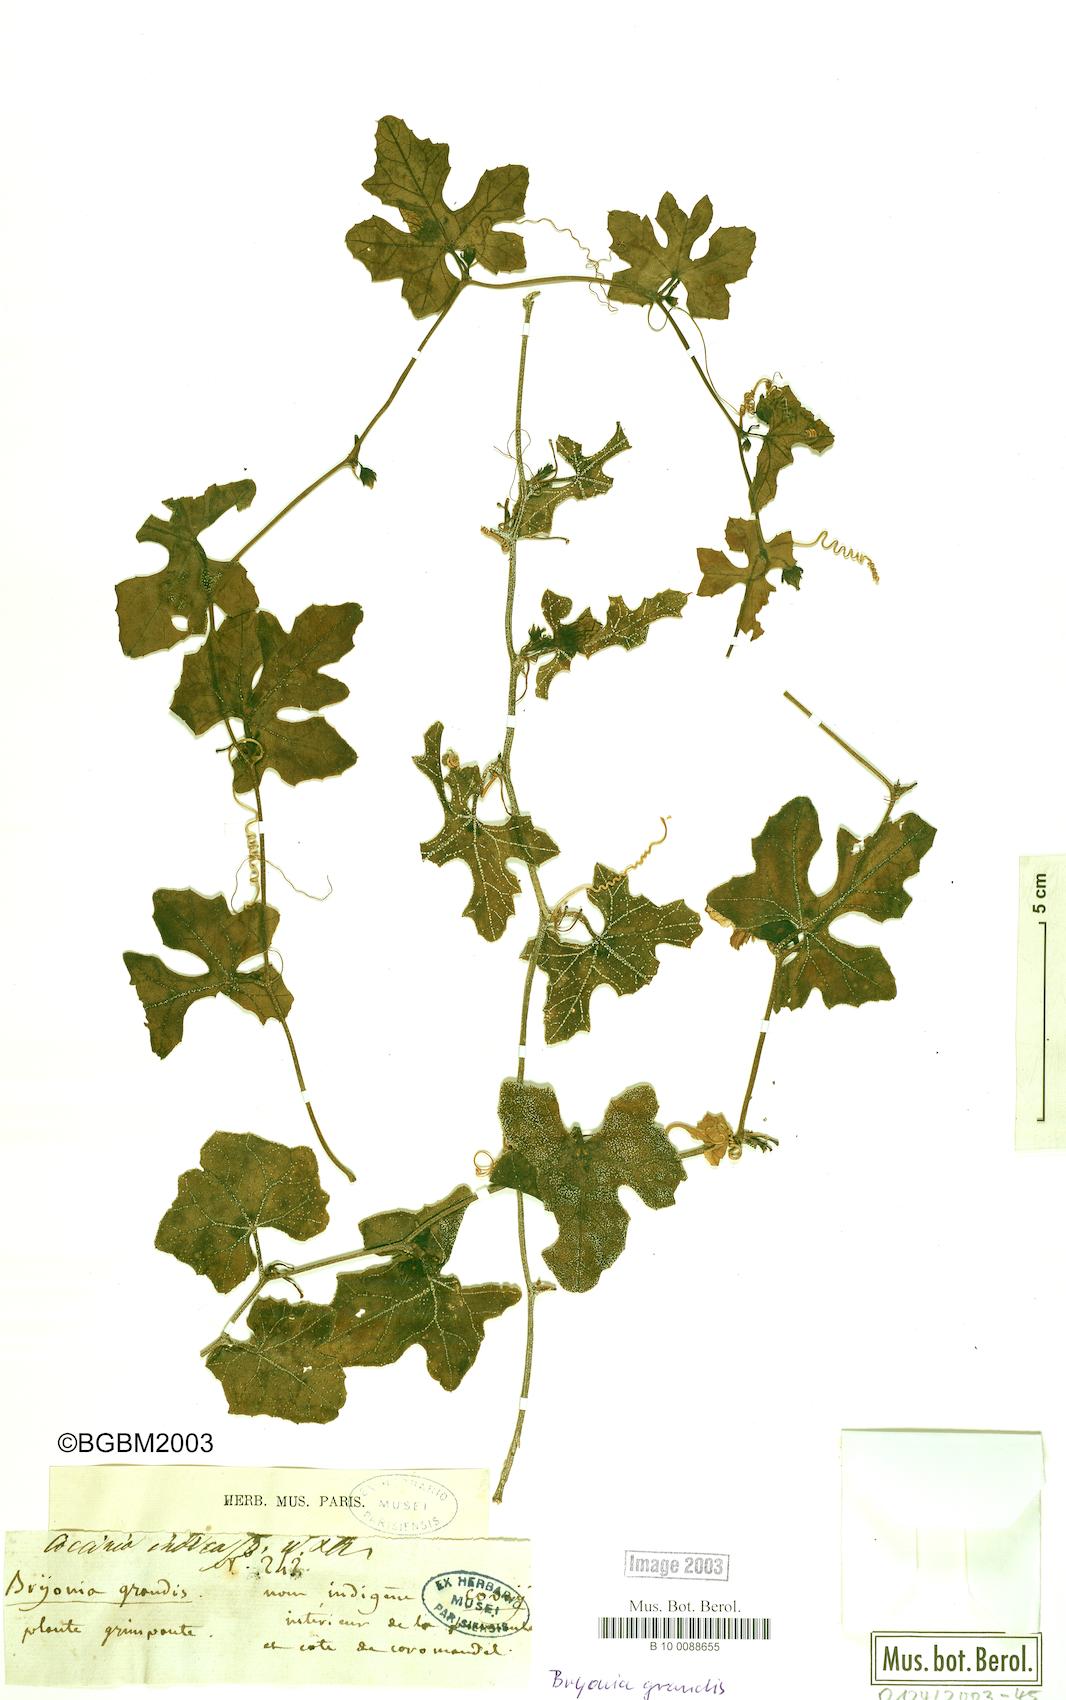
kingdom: Plantae
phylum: Tracheophyta
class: Magnoliopsida
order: Cucurbitales
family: Cucurbitaceae
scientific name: Cucurbitaceae
